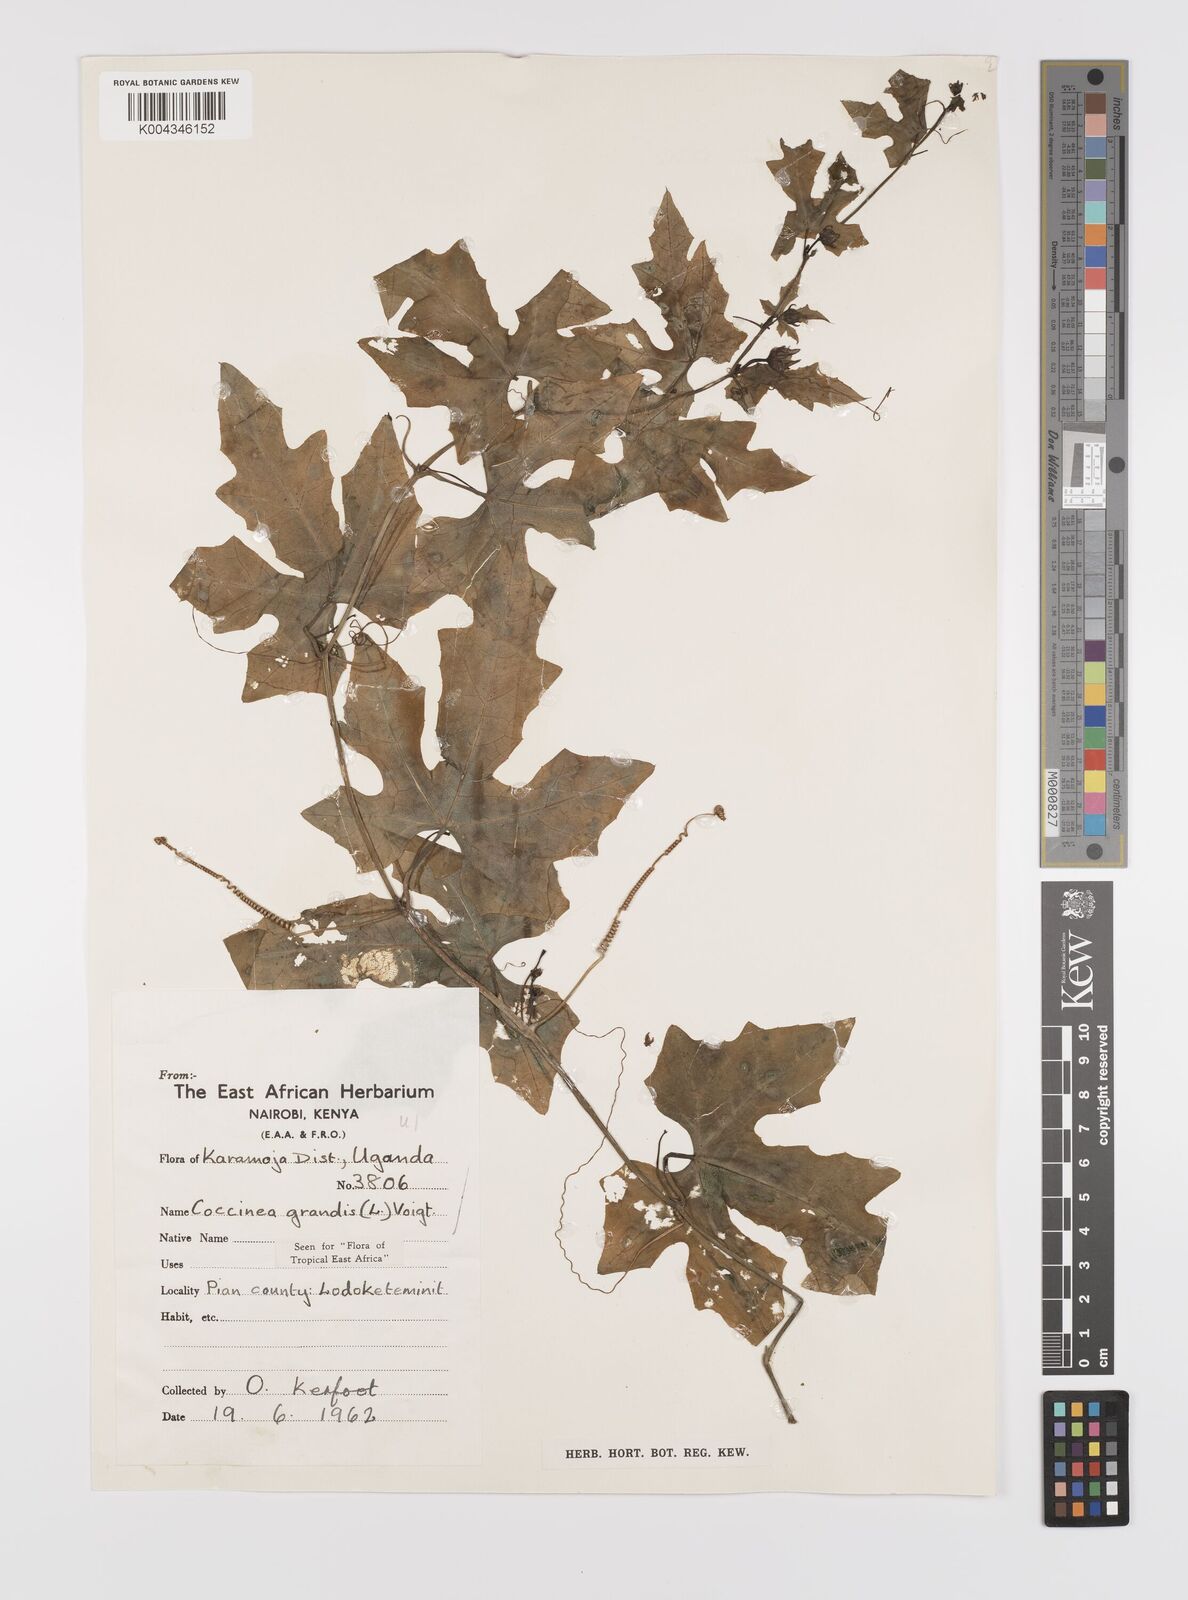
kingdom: Plantae
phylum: Tracheophyta
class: Magnoliopsida
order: Cucurbitales
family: Cucurbitaceae
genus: Coccinia
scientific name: Coccinia grandis
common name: Ivy gourd
